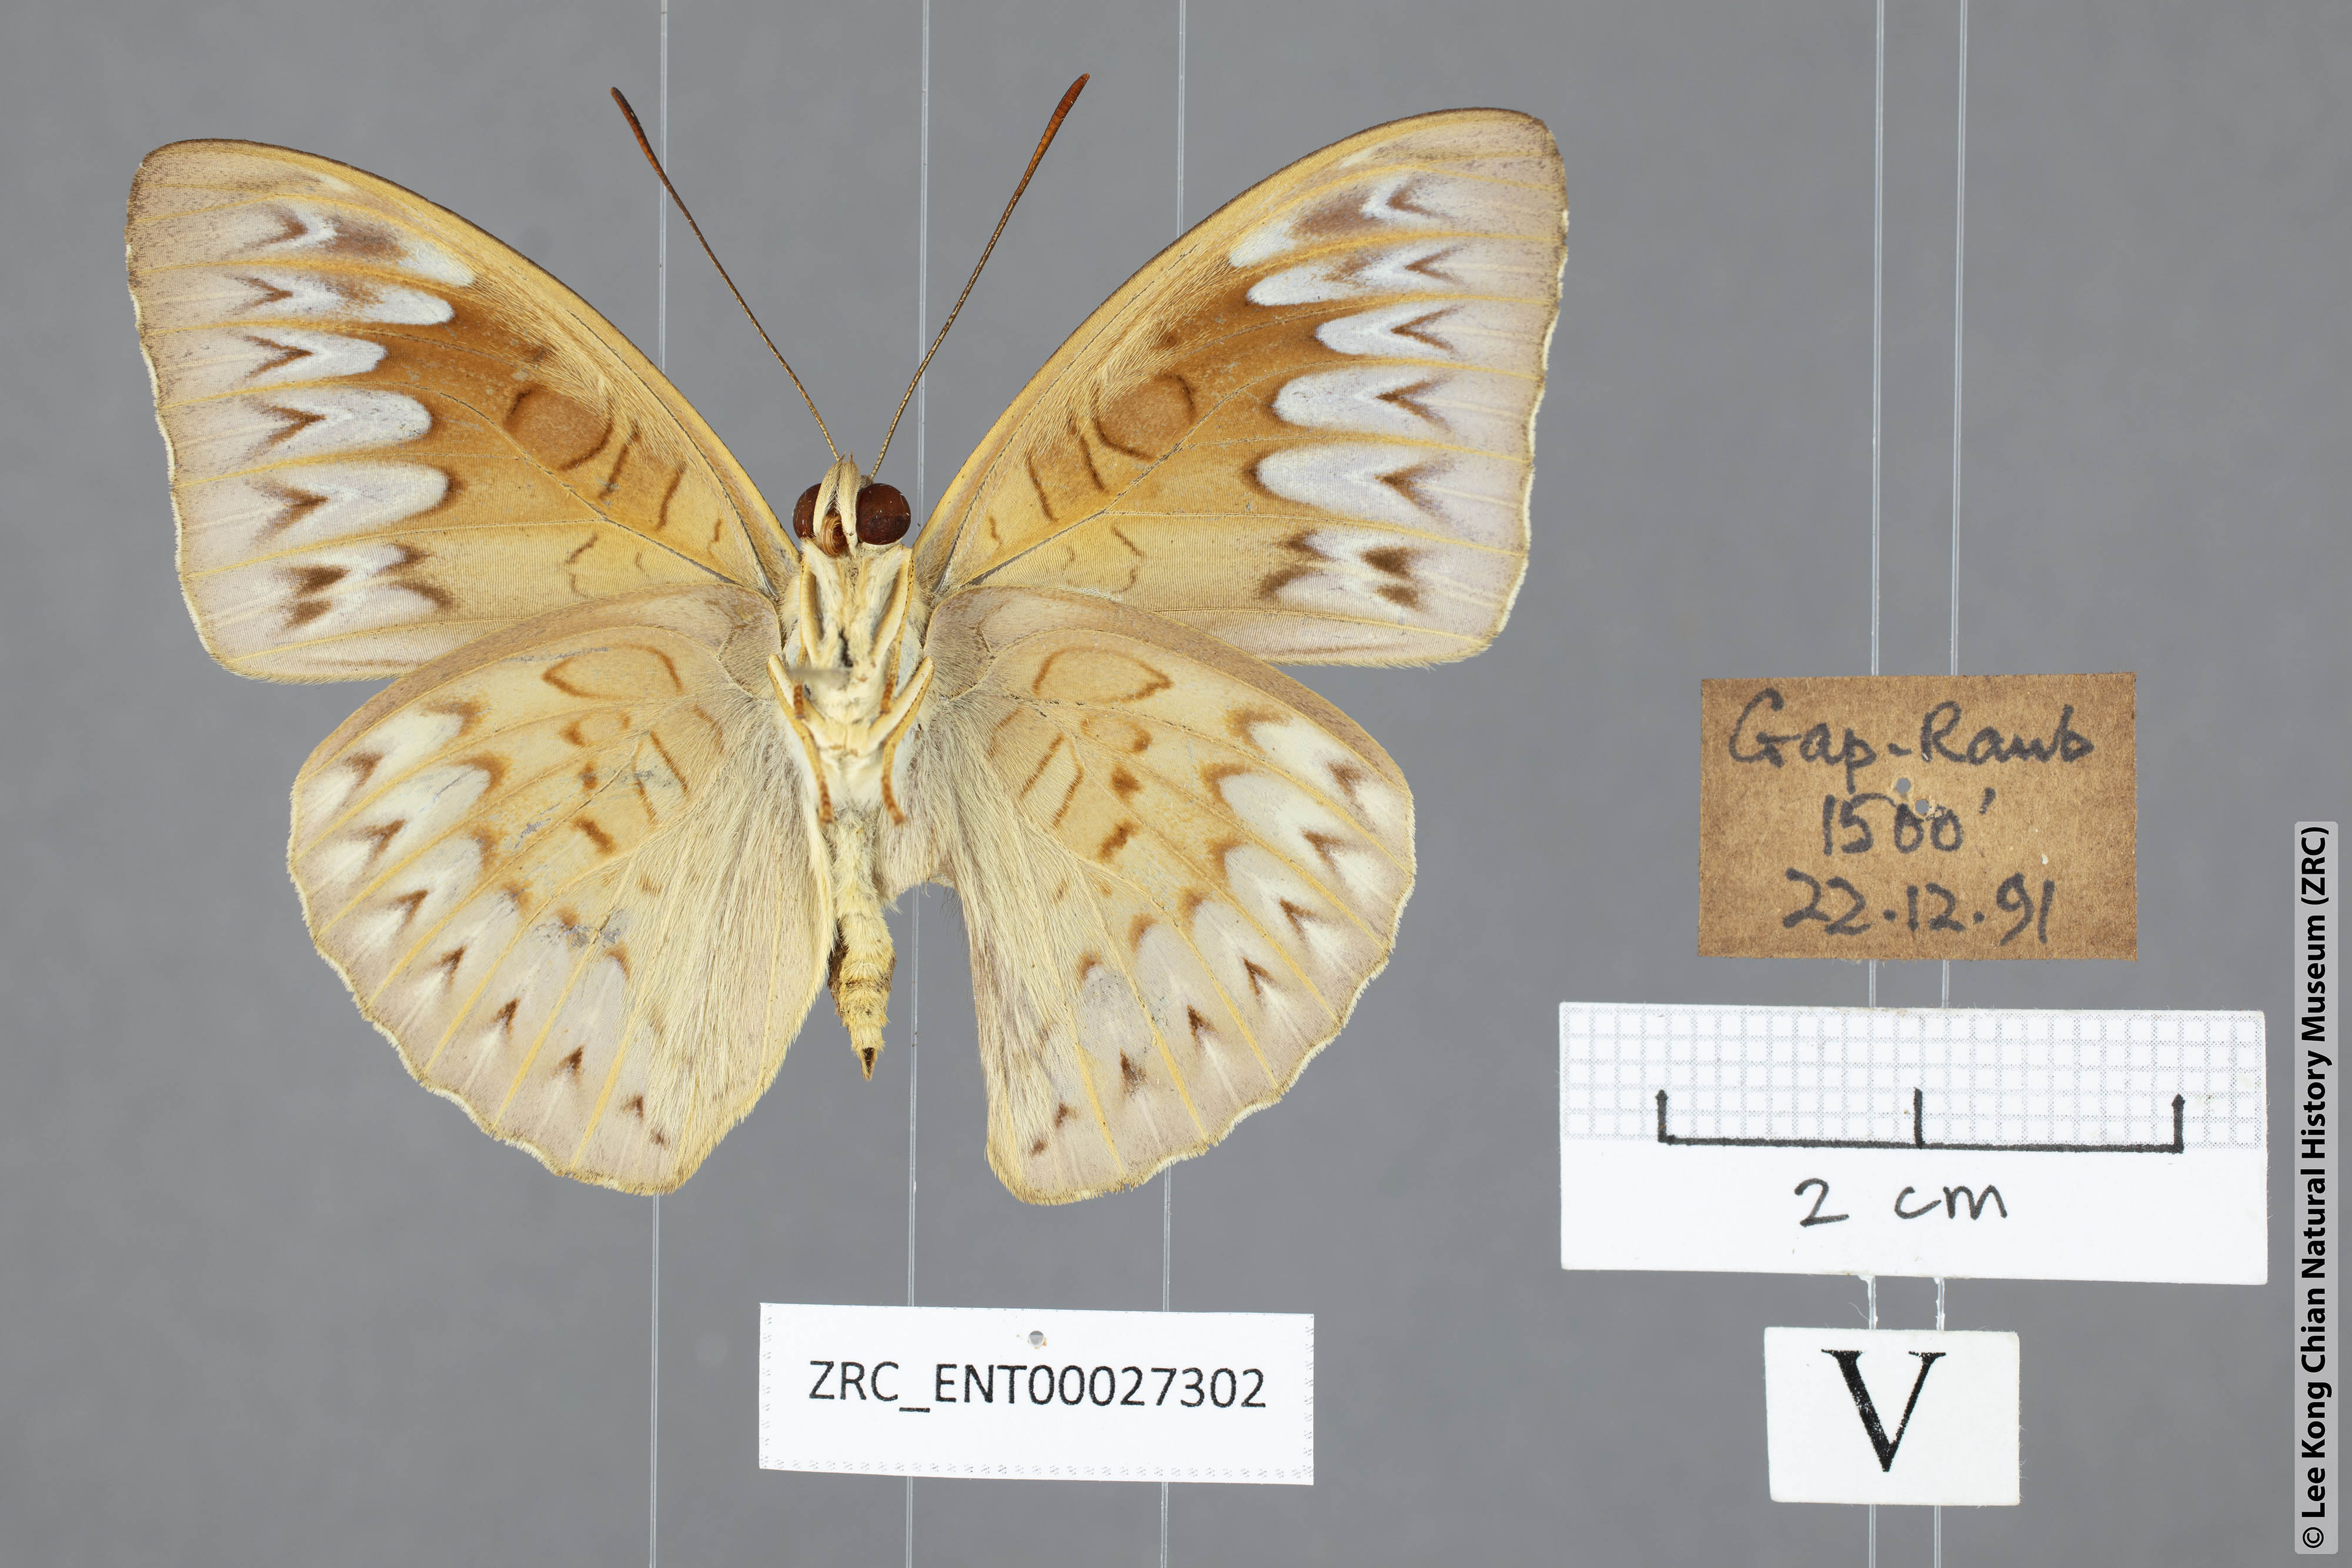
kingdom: Animalia
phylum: Arthropoda
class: Insecta
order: Lepidoptera
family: Nymphalidae
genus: Tanaecia
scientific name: Tanaecia munda
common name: Peninsular viscount
